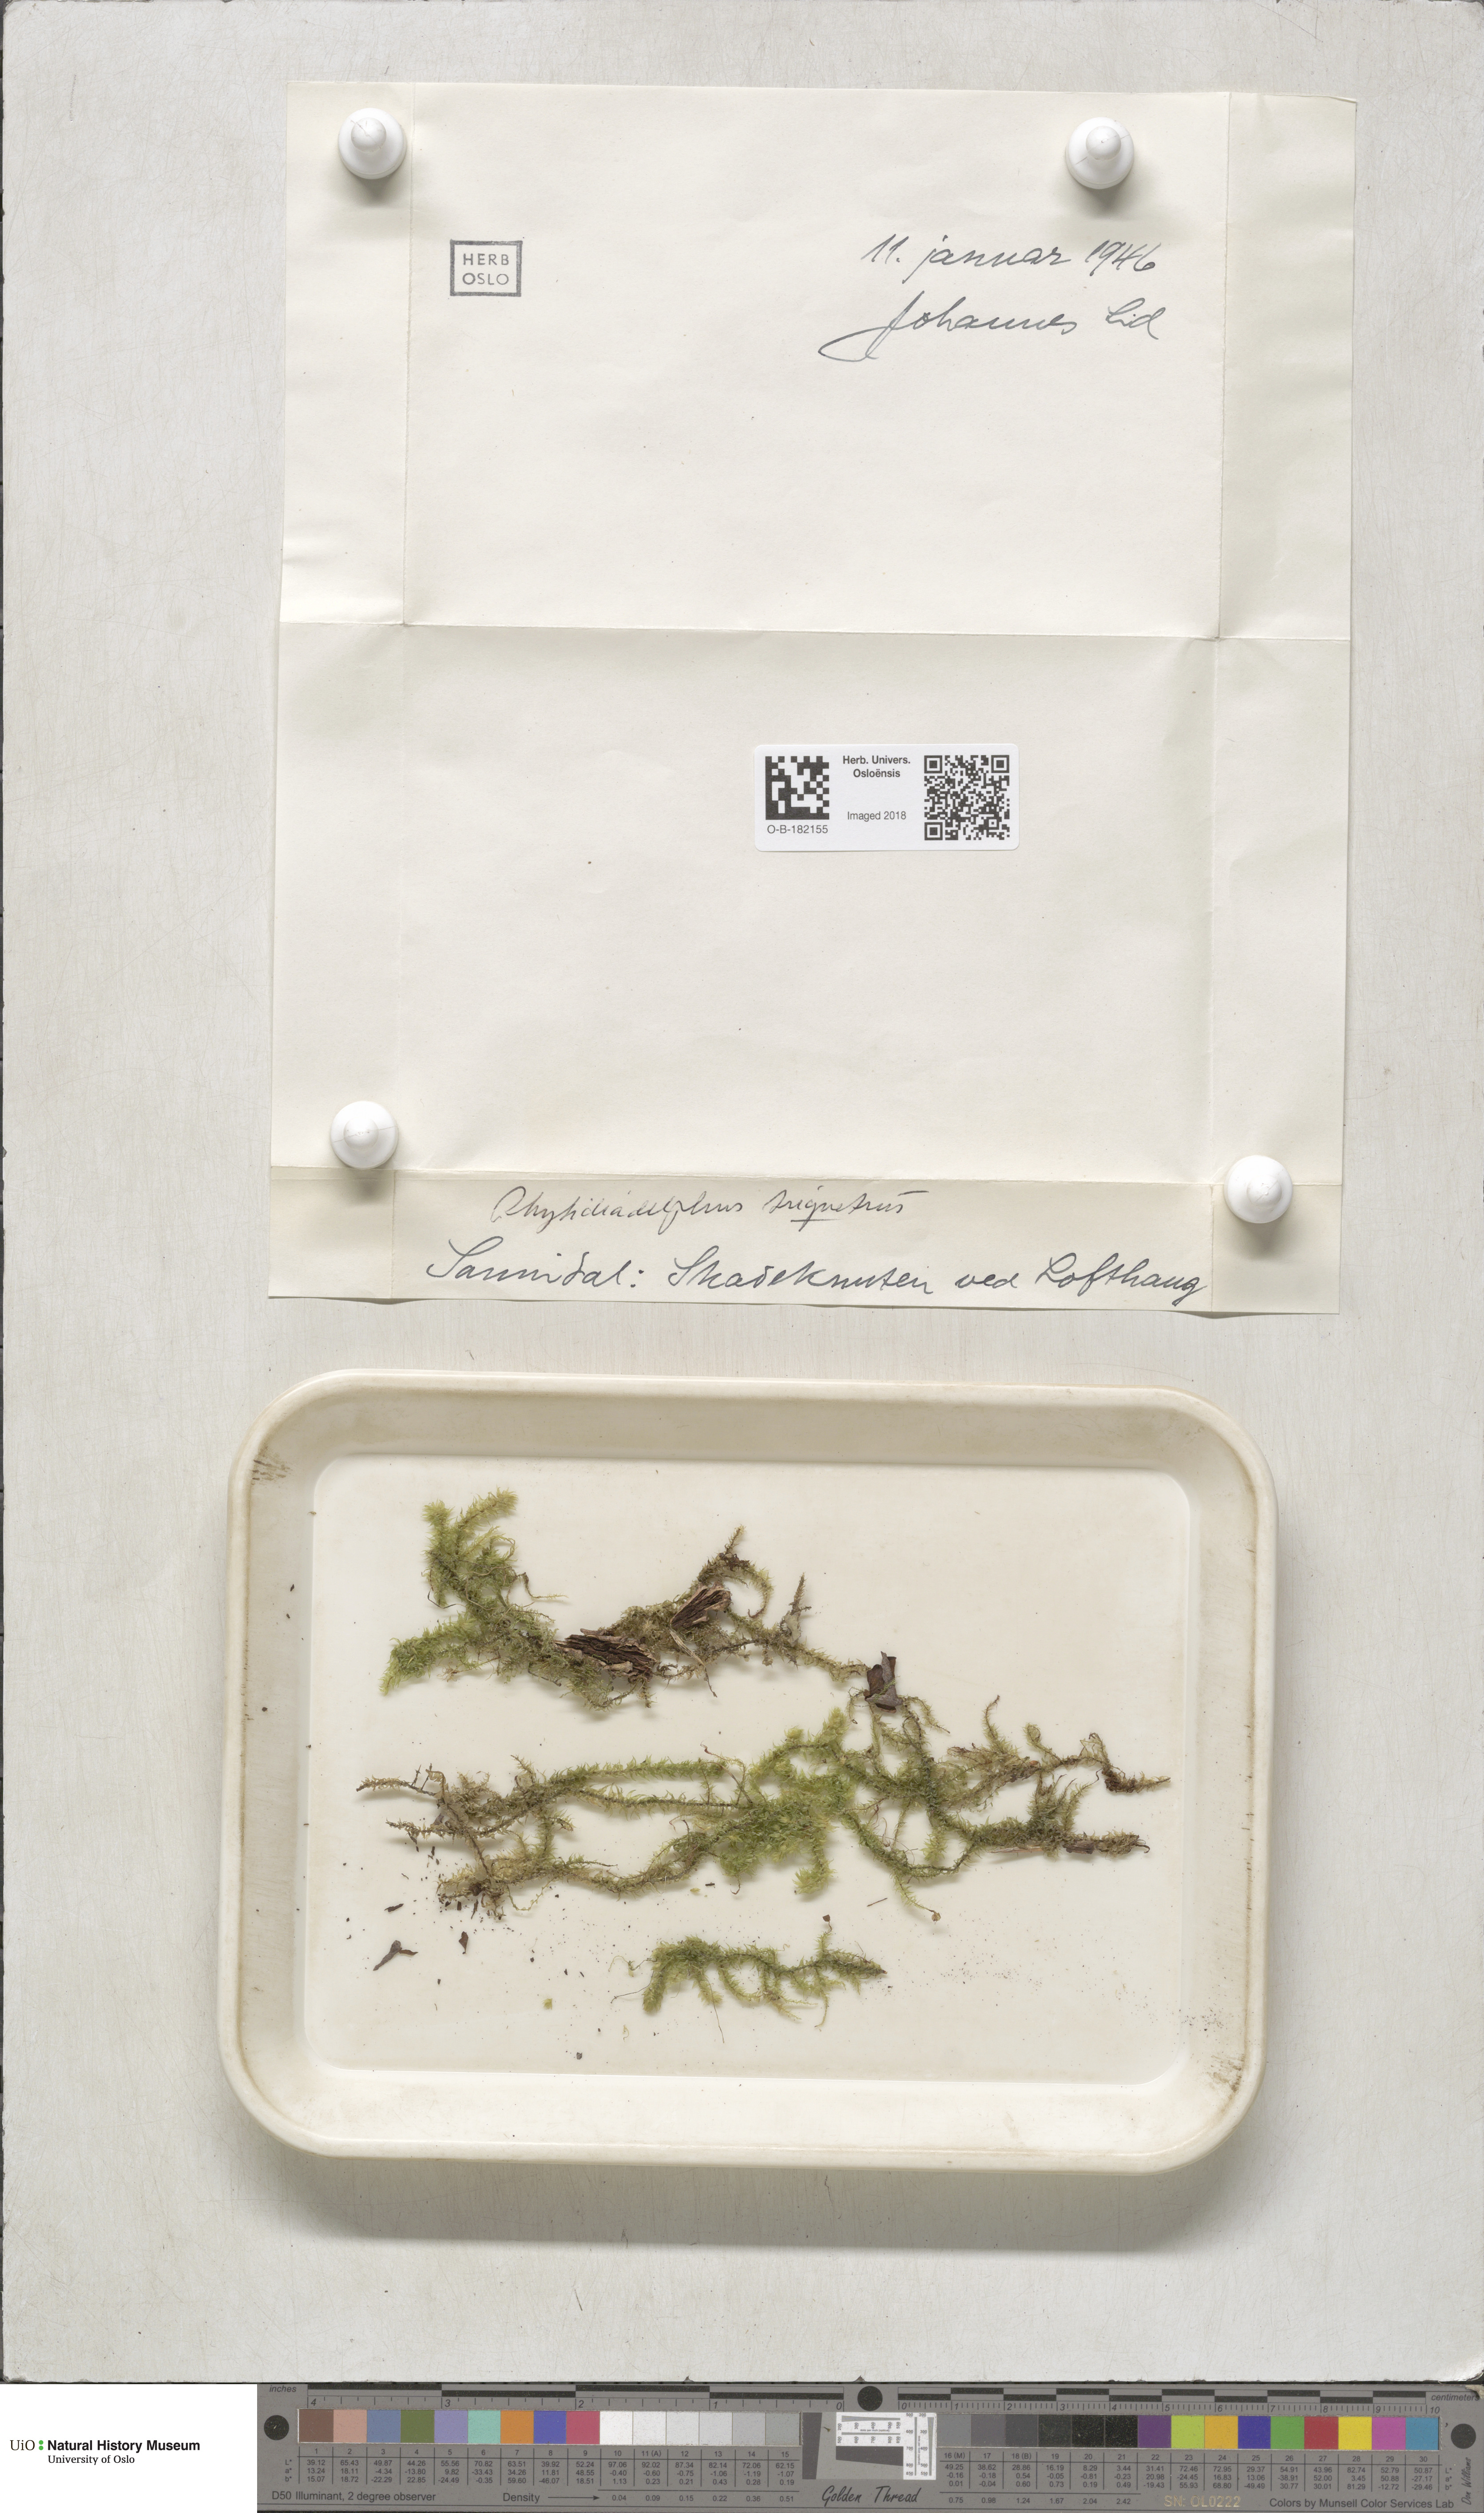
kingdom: Plantae
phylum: Bryophyta
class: Bryopsida
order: Hypnales
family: Hylocomiaceae
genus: Hylocomiadelphus
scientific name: Hylocomiadelphus triquetrus
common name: Rough goose neck moss
